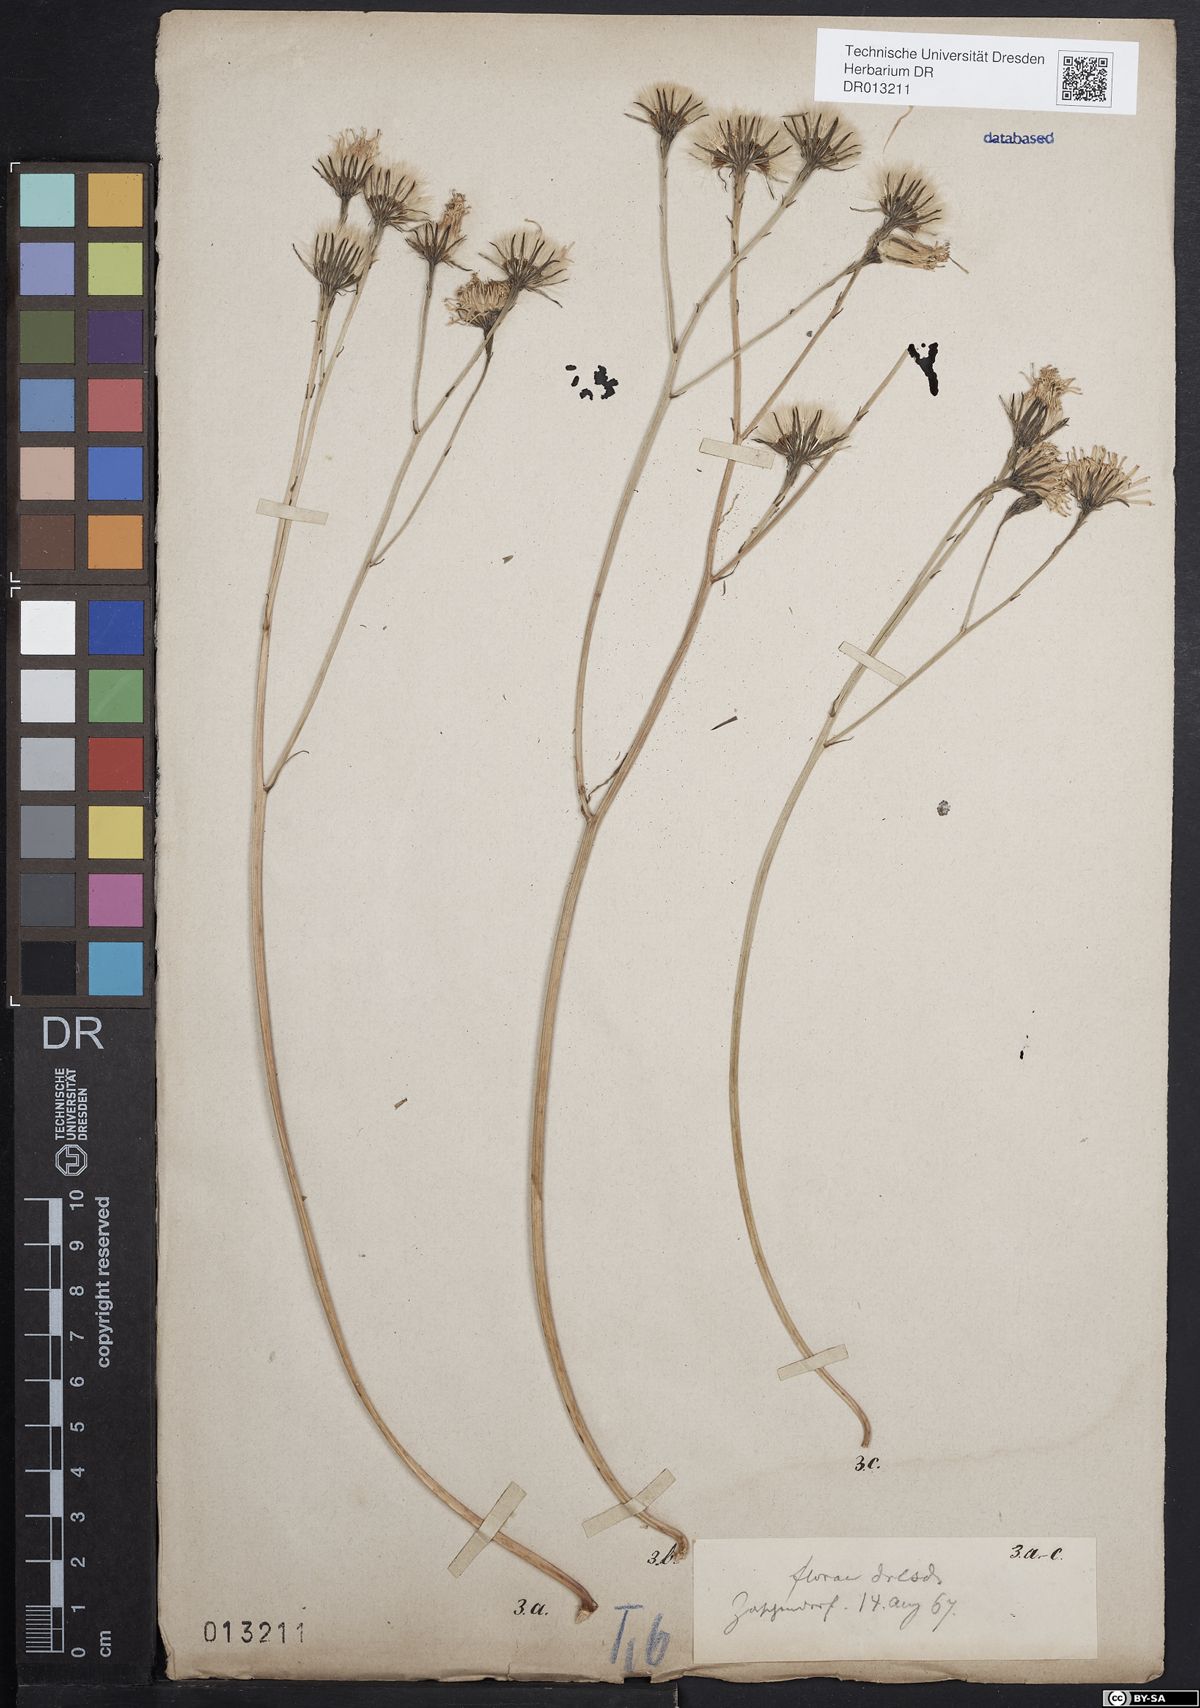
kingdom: Plantae
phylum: Tracheophyta
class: Magnoliopsida
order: Asterales
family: Asteraceae
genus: Scorzoneroides
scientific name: Scorzoneroides autumnalis
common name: Autumn hawkbit
